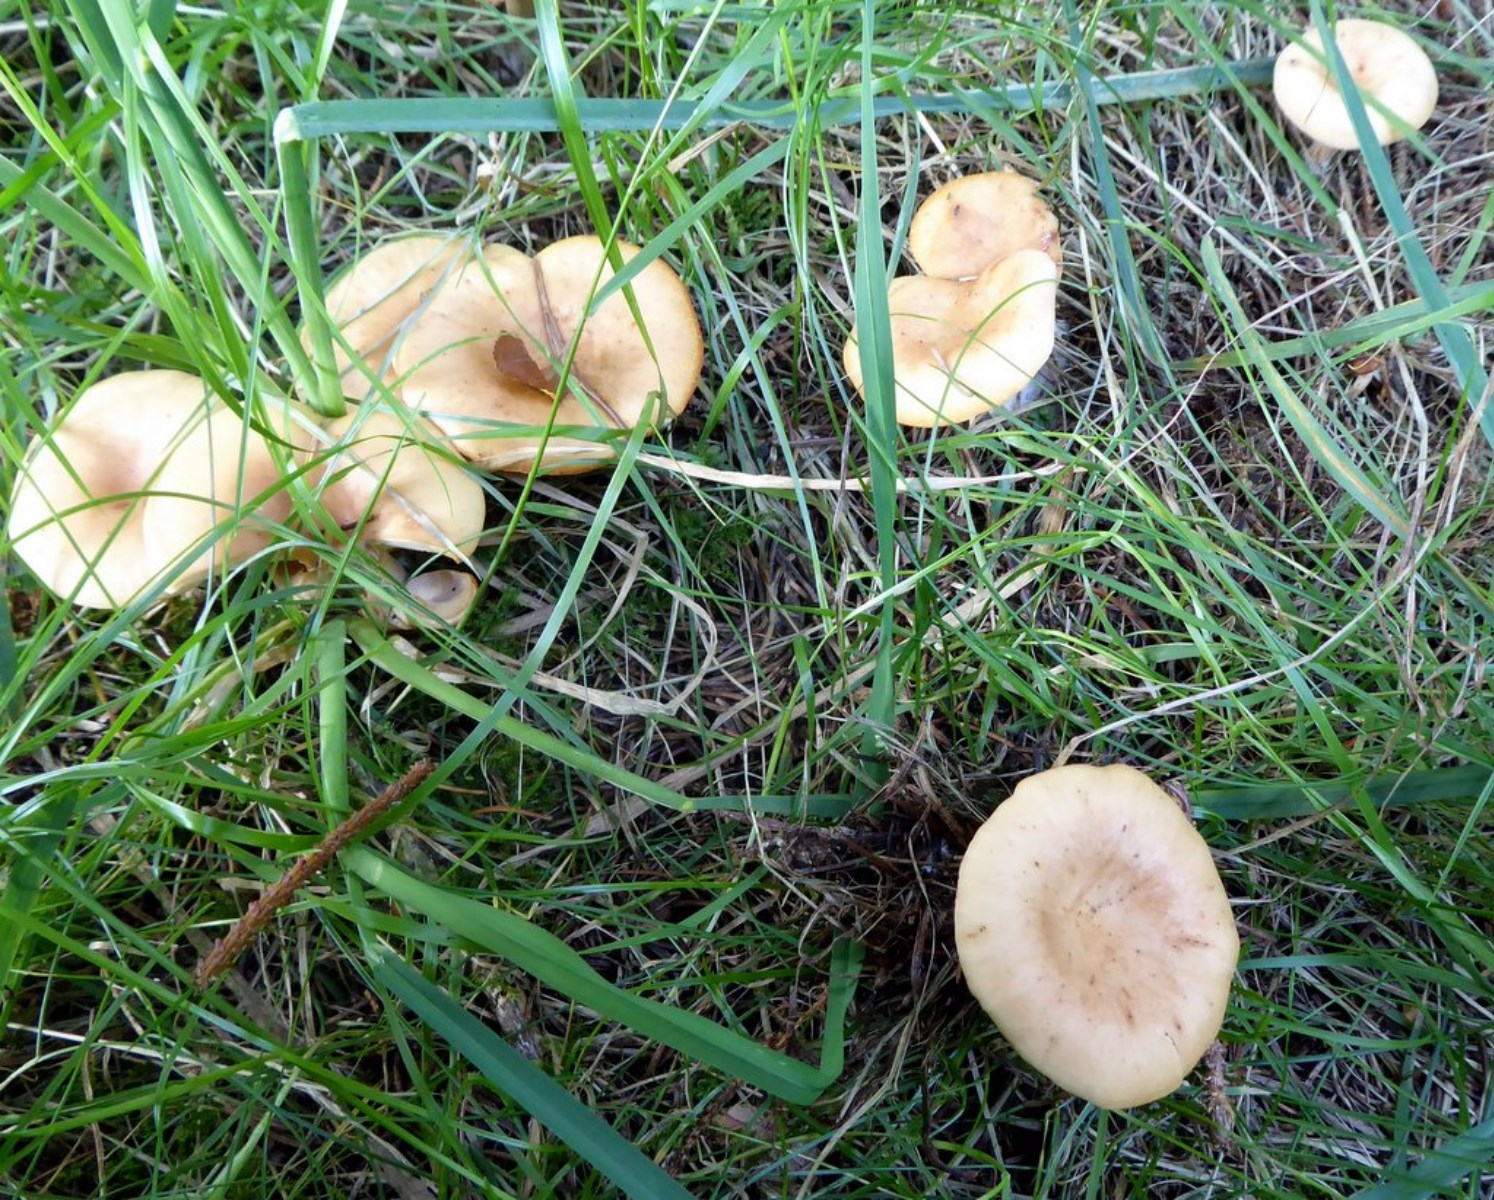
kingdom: Fungi
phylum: Basidiomycota
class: Agaricomycetes
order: Agaricales
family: Tricholomataceae
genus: Paralepista
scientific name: Paralepista flaccida
